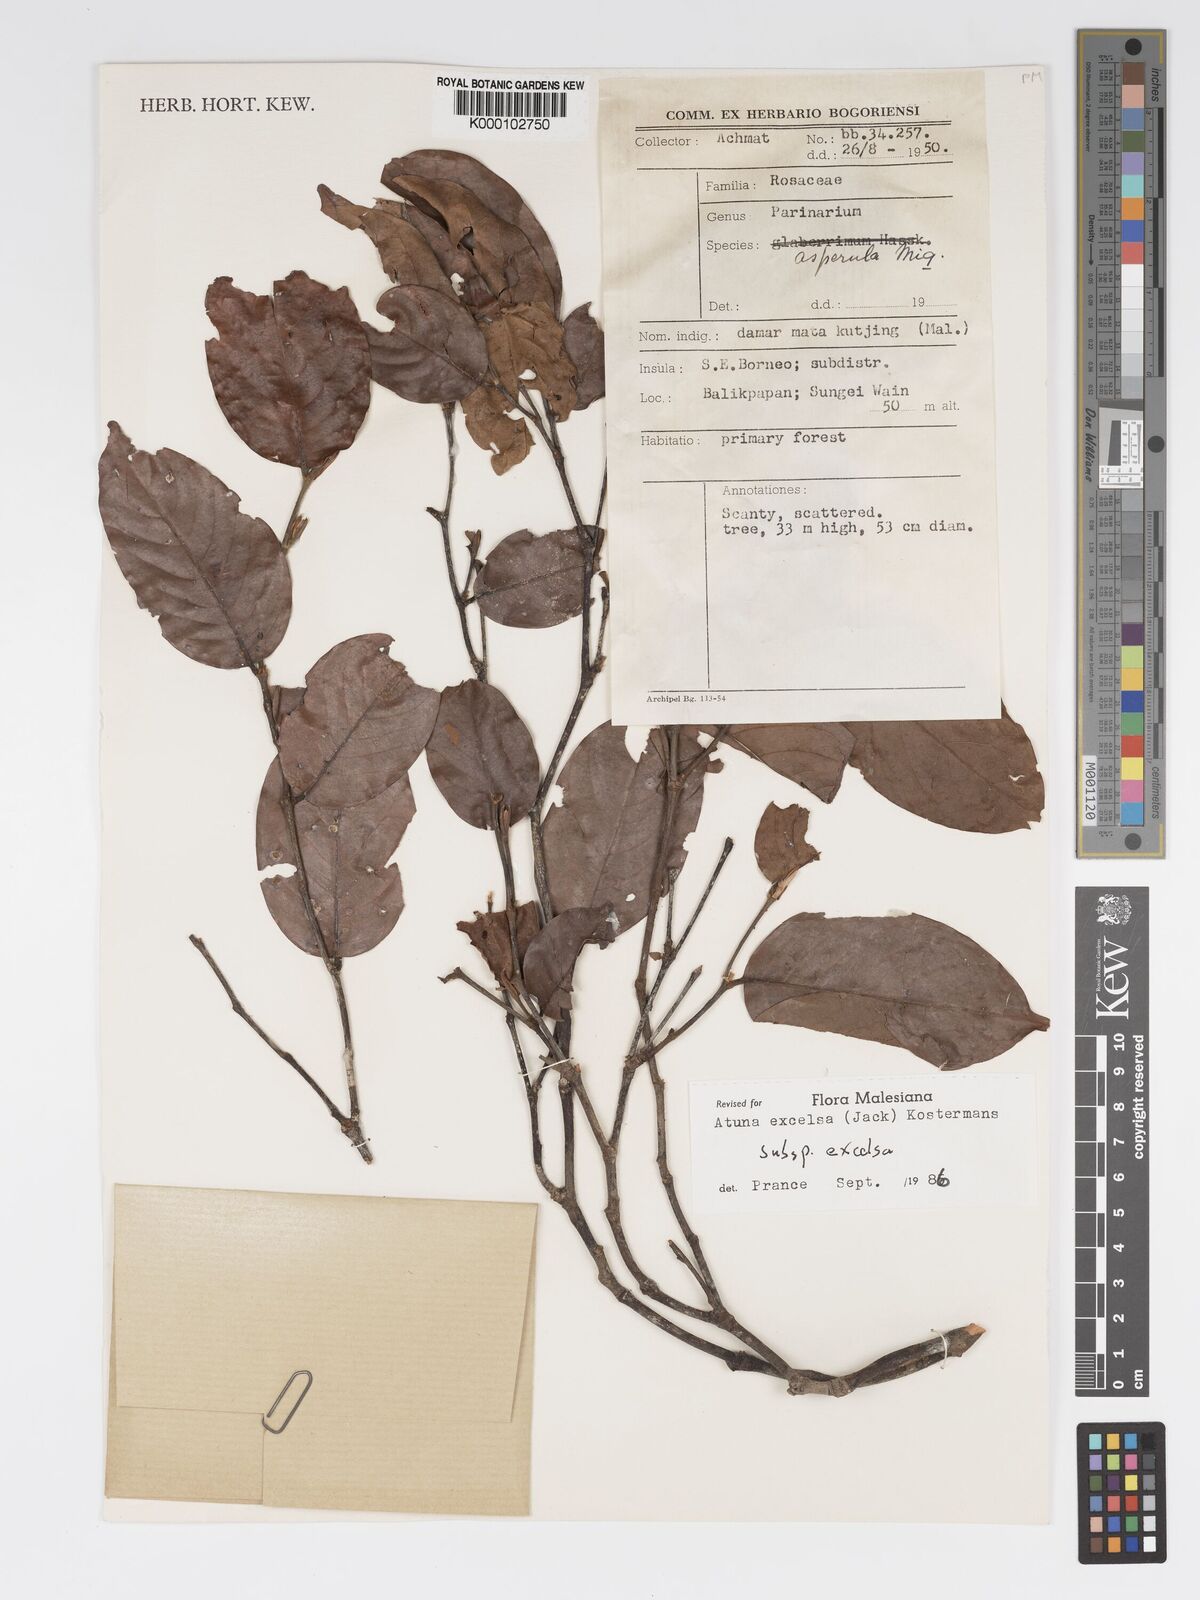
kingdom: Plantae
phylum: Tracheophyta
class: Magnoliopsida
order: Malpighiales
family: Chrysobalanaceae
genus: Atuna
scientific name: Atuna excelsa
